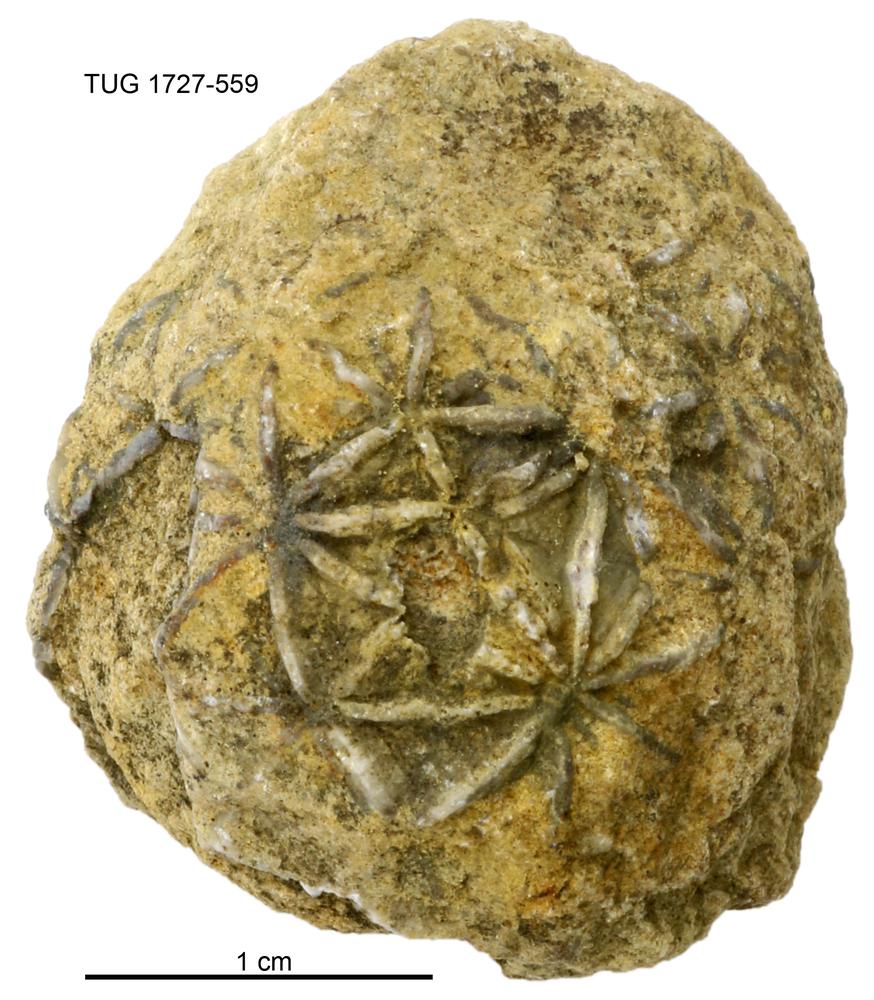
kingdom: Animalia
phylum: Echinodermata
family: Caryocystitidae
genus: Heliocrinites
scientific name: Heliocrinites
